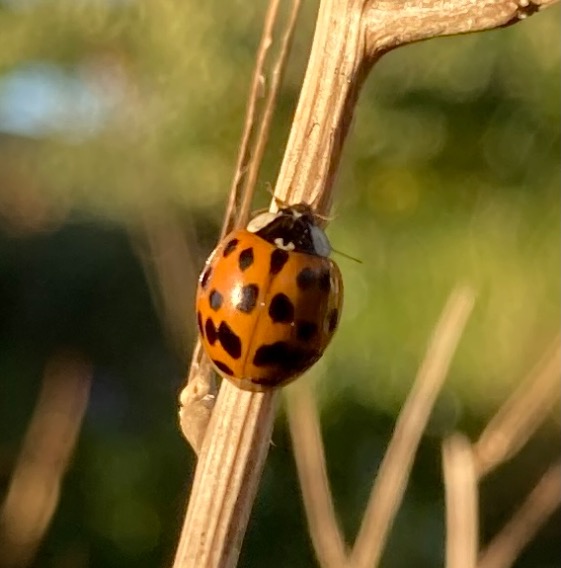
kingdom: Animalia
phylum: Arthropoda
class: Insecta
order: Coleoptera
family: Coccinellidae
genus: Harmonia
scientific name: Harmonia axyridis
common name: Harlekinmariehøne
